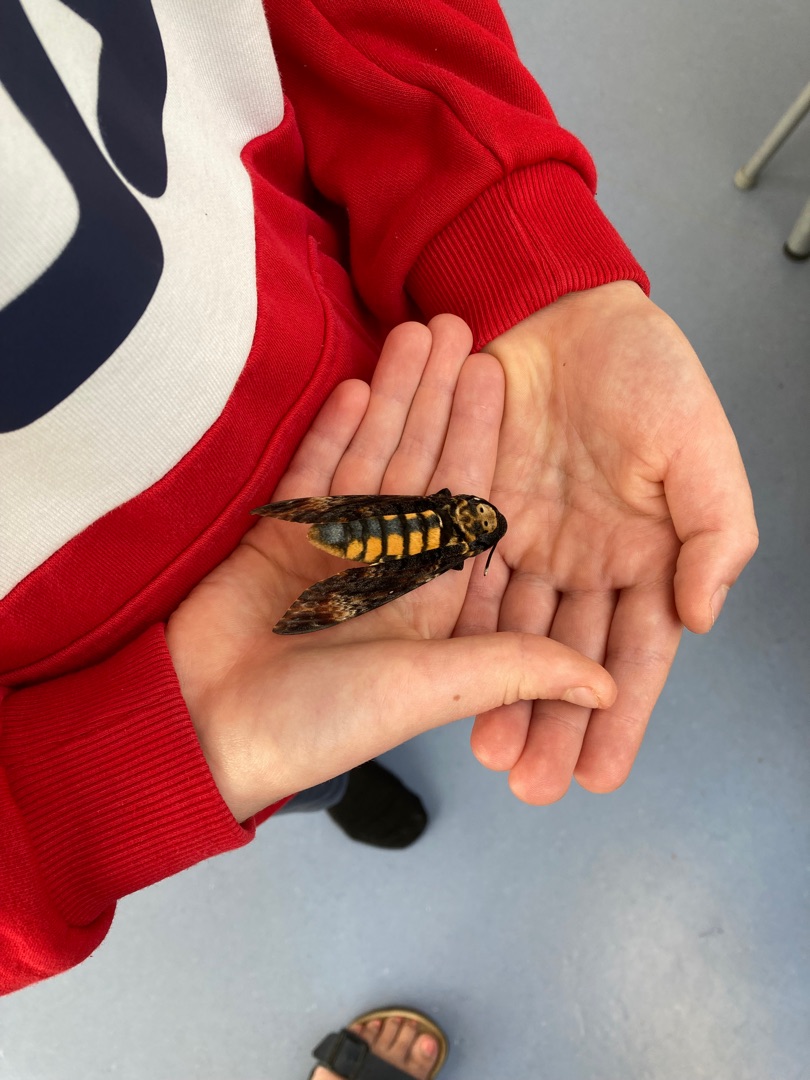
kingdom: Animalia
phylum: Arthropoda
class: Insecta
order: Lepidoptera
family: Sphingidae
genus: Acherontia
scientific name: Acherontia atropos
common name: Dødningehoved
